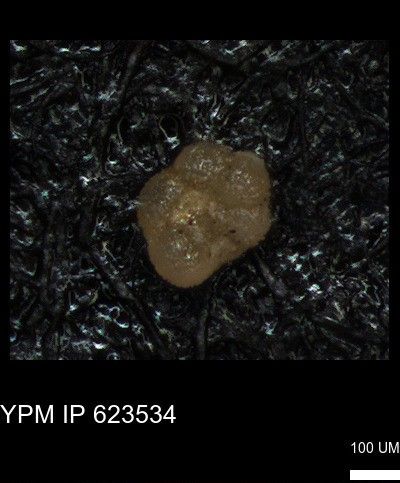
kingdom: Chromista
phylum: Foraminifera
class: Globothalamea
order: Rotaliida
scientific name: Rotaliida
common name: forams
